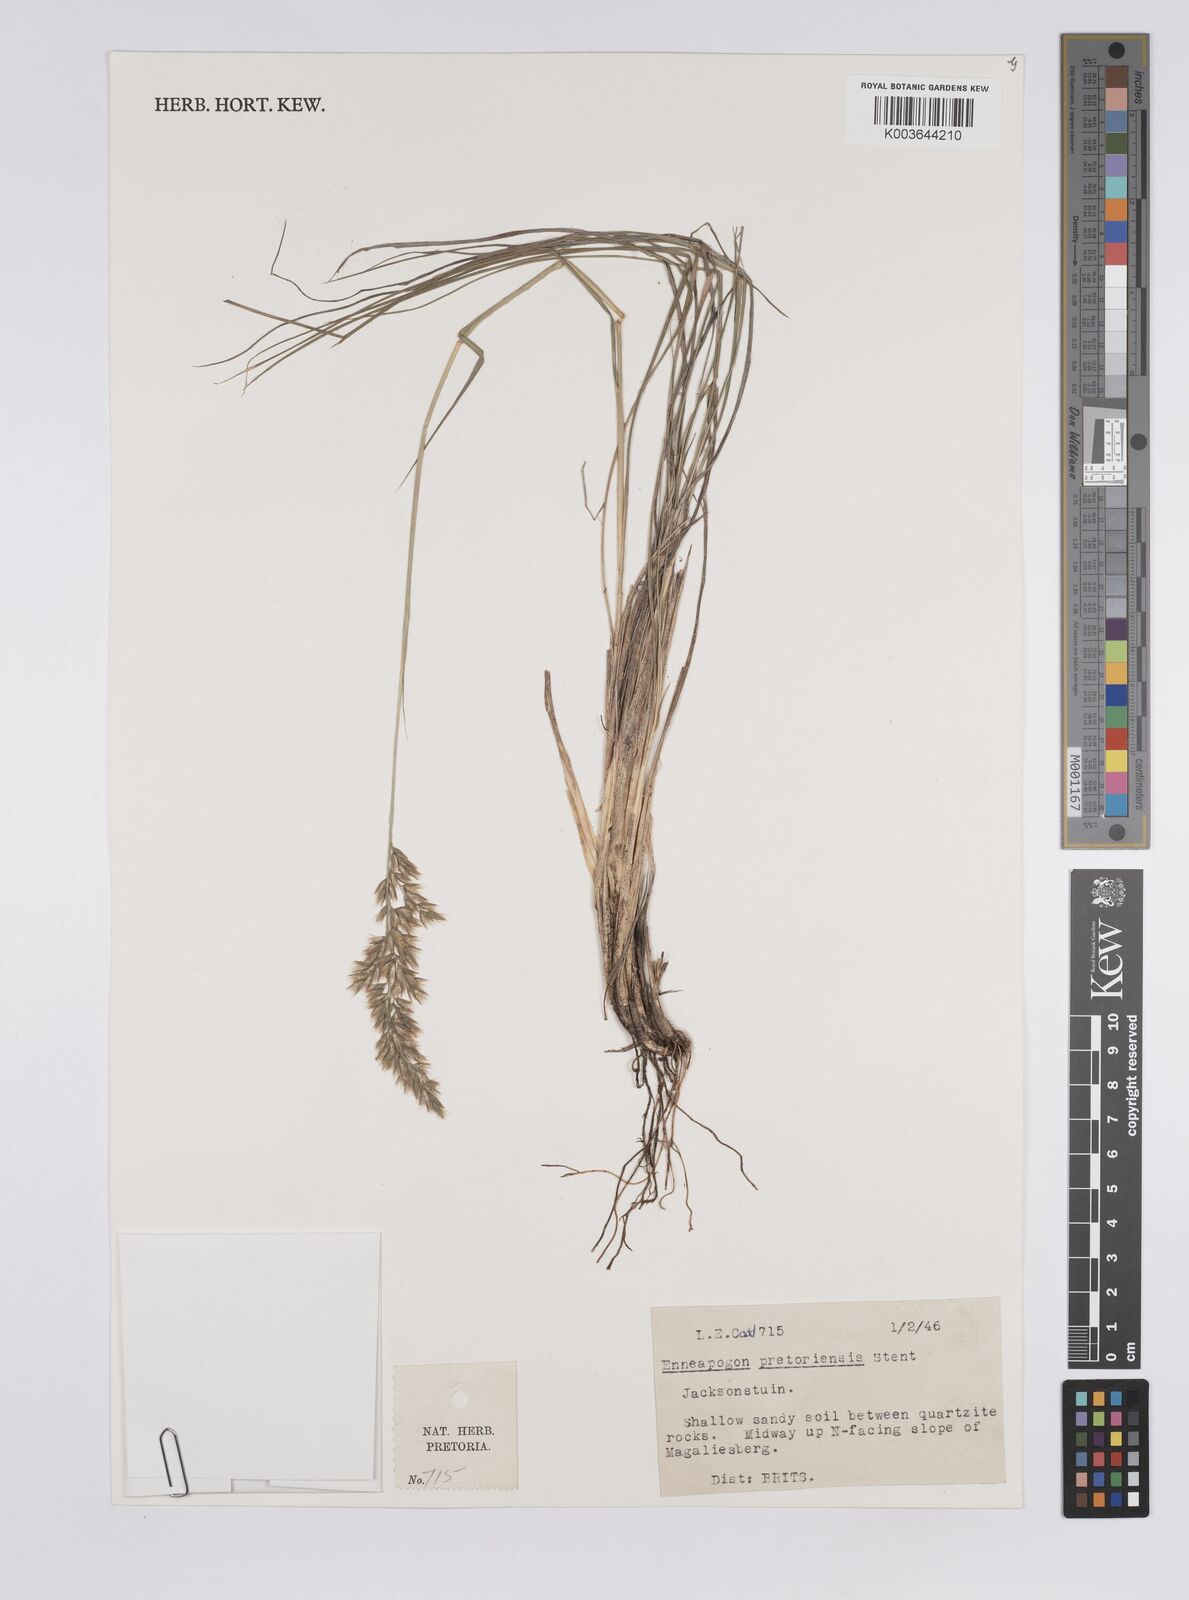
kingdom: Plantae
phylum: Tracheophyta
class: Liliopsida
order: Poales
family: Poaceae
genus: Enneapogon
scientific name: Enneapogon pretoriensis
